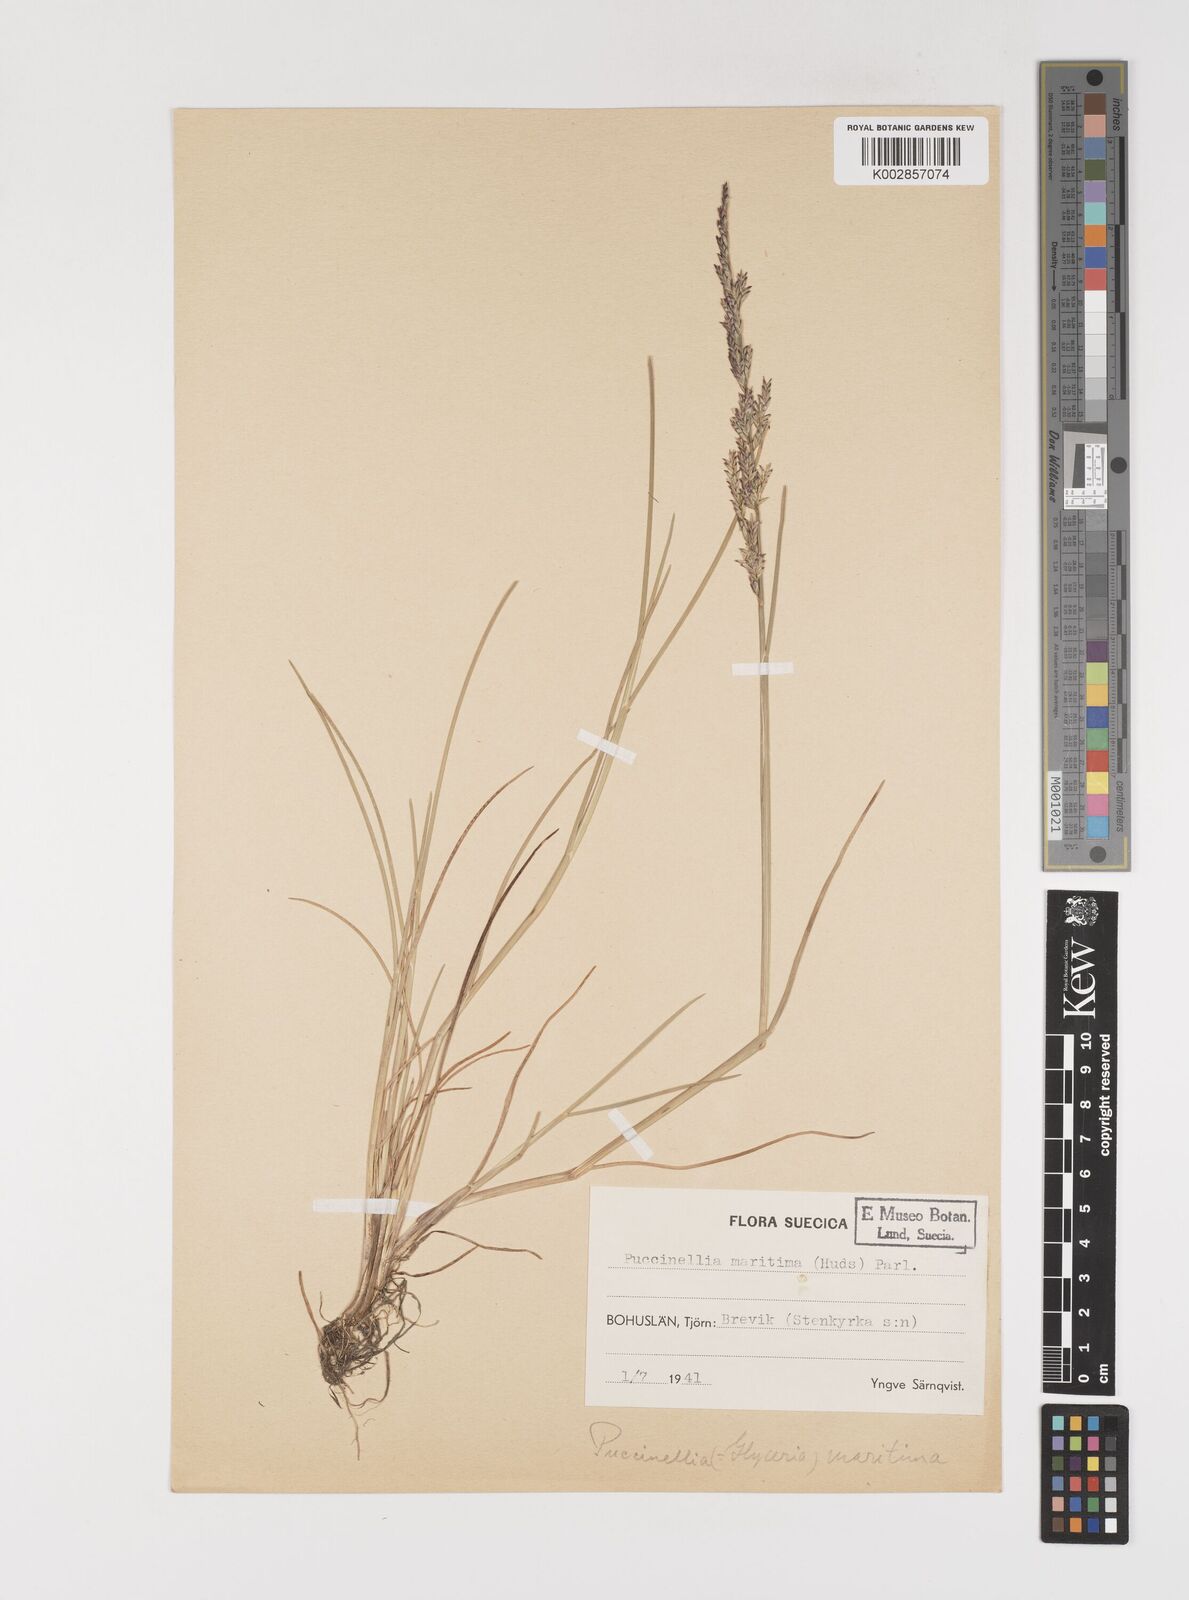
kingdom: Plantae
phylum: Tracheophyta
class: Liliopsida
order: Poales
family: Poaceae
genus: Puccinellia
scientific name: Puccinellia maritima
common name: Common saltmarsh grass
